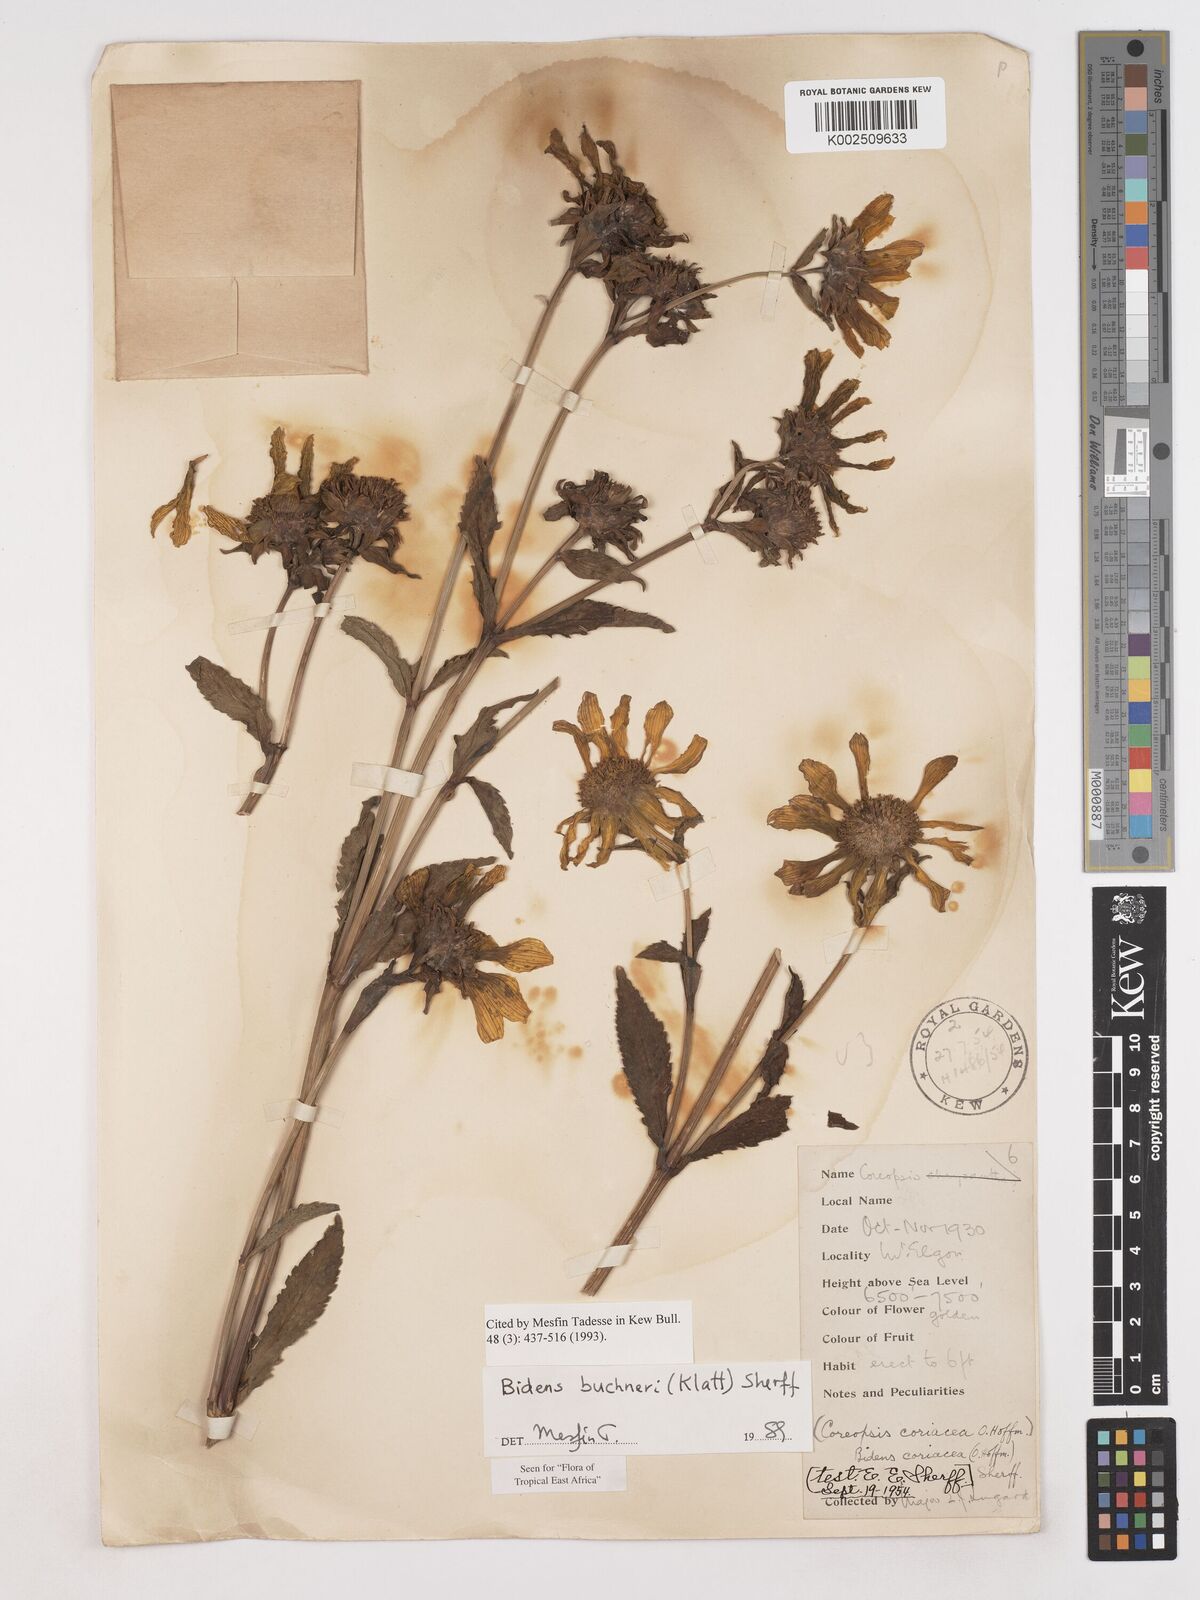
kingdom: Plantae
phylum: Tracheophyta
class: Magnoliopsida
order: Asterales
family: Asteraceae
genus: Bidens
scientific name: Bidens buchneri
